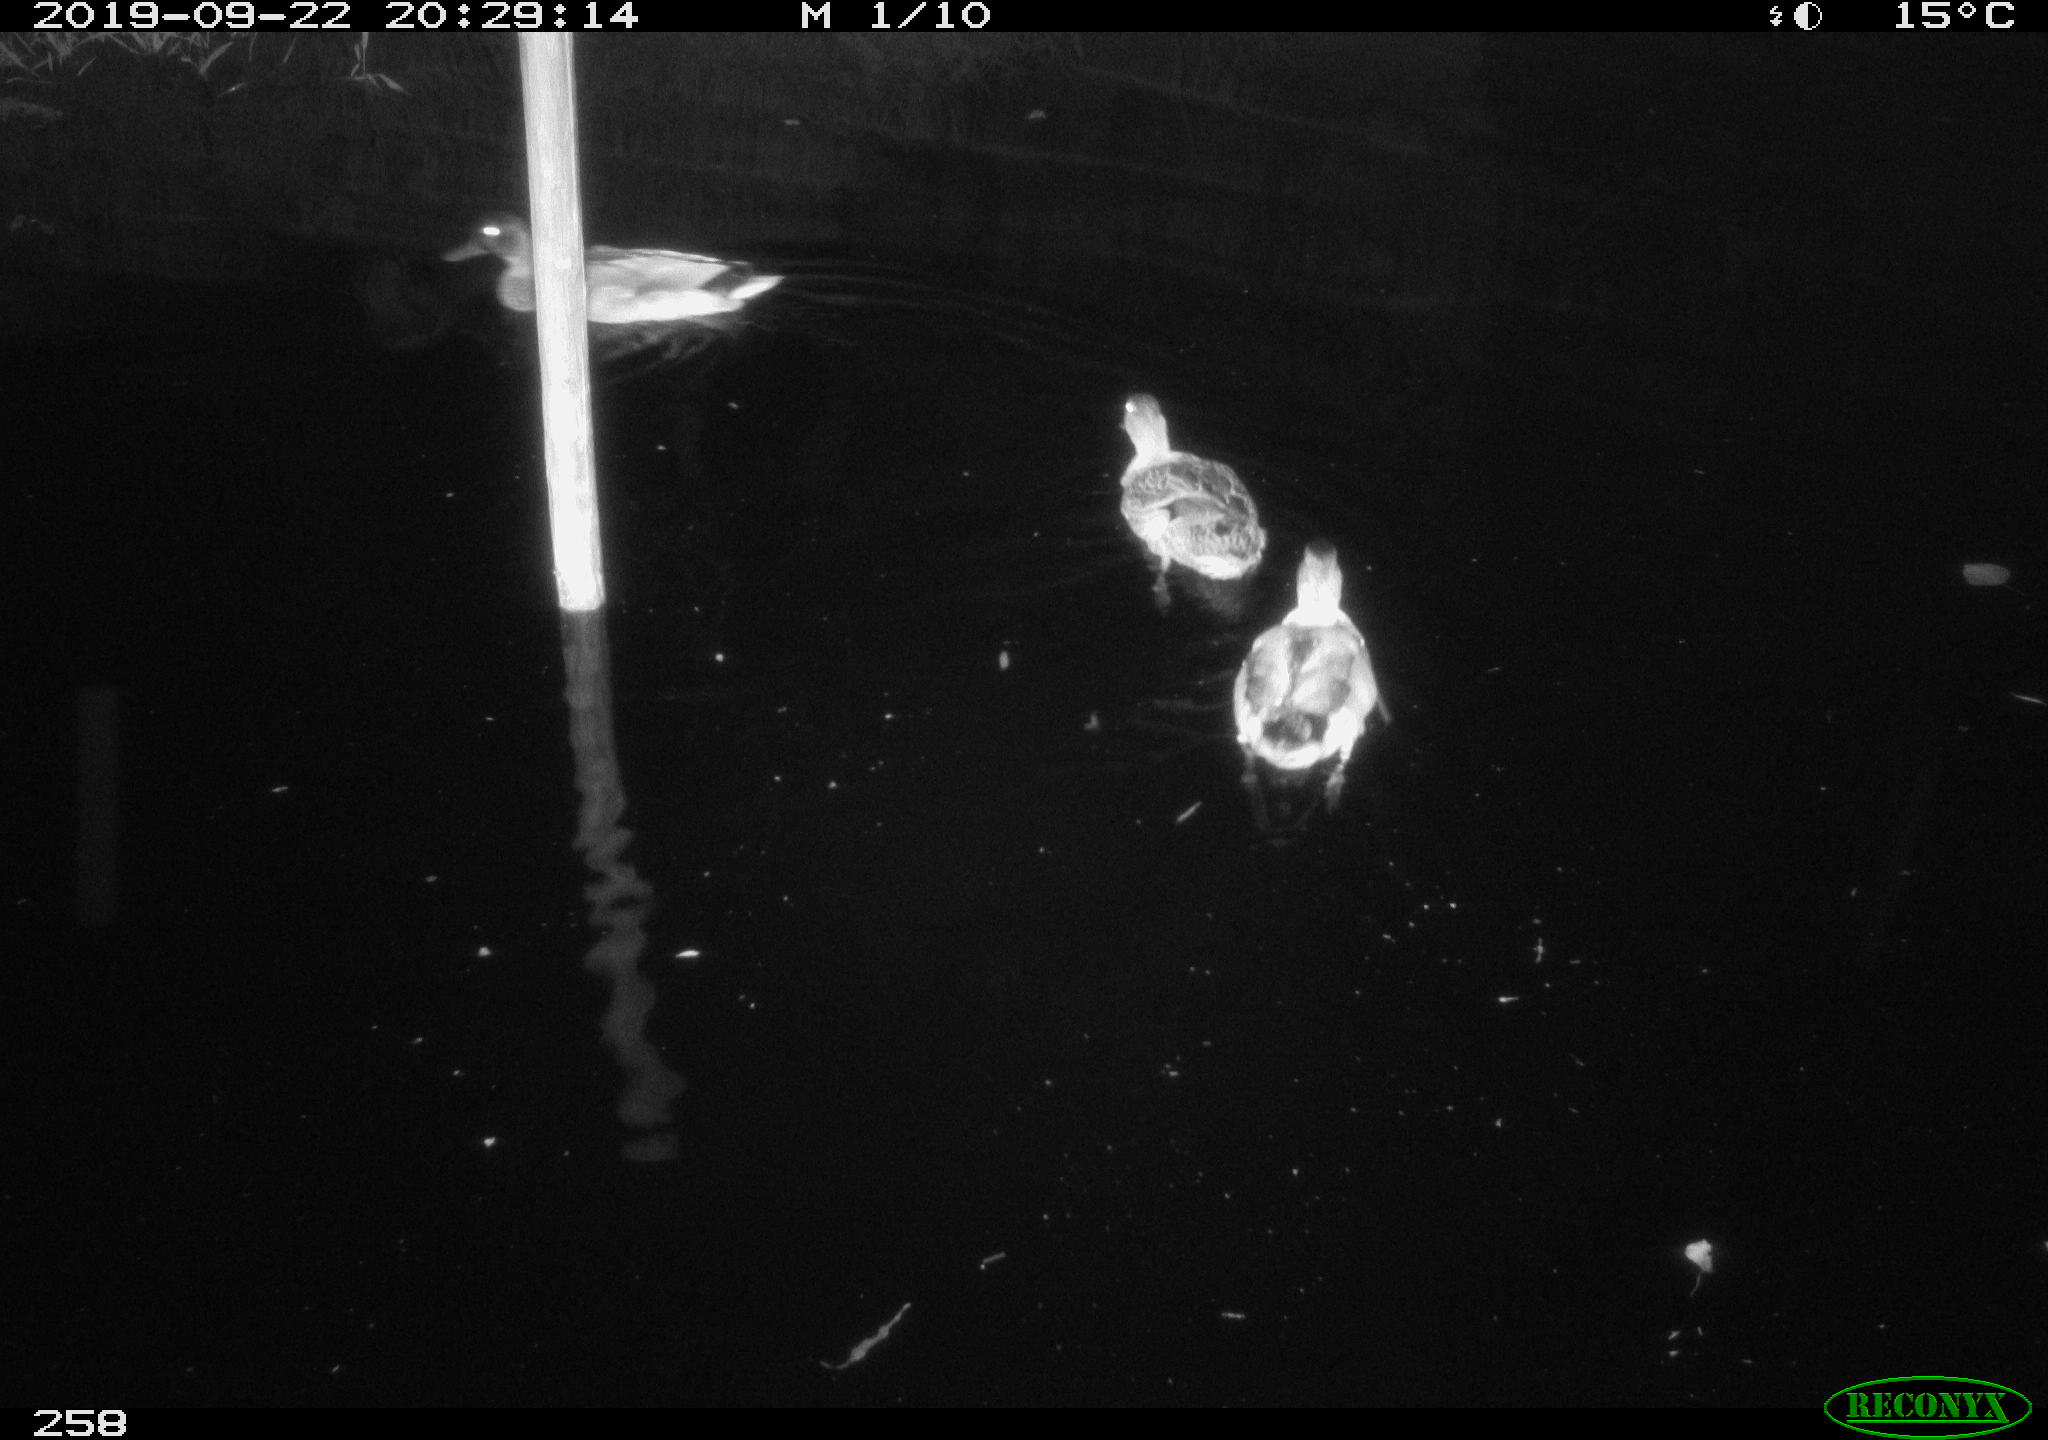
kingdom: Animalia
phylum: Chordata
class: Aves
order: Anseriformes
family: Anatidae
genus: Anas
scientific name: Anas platyrhynchos
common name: Mallard
